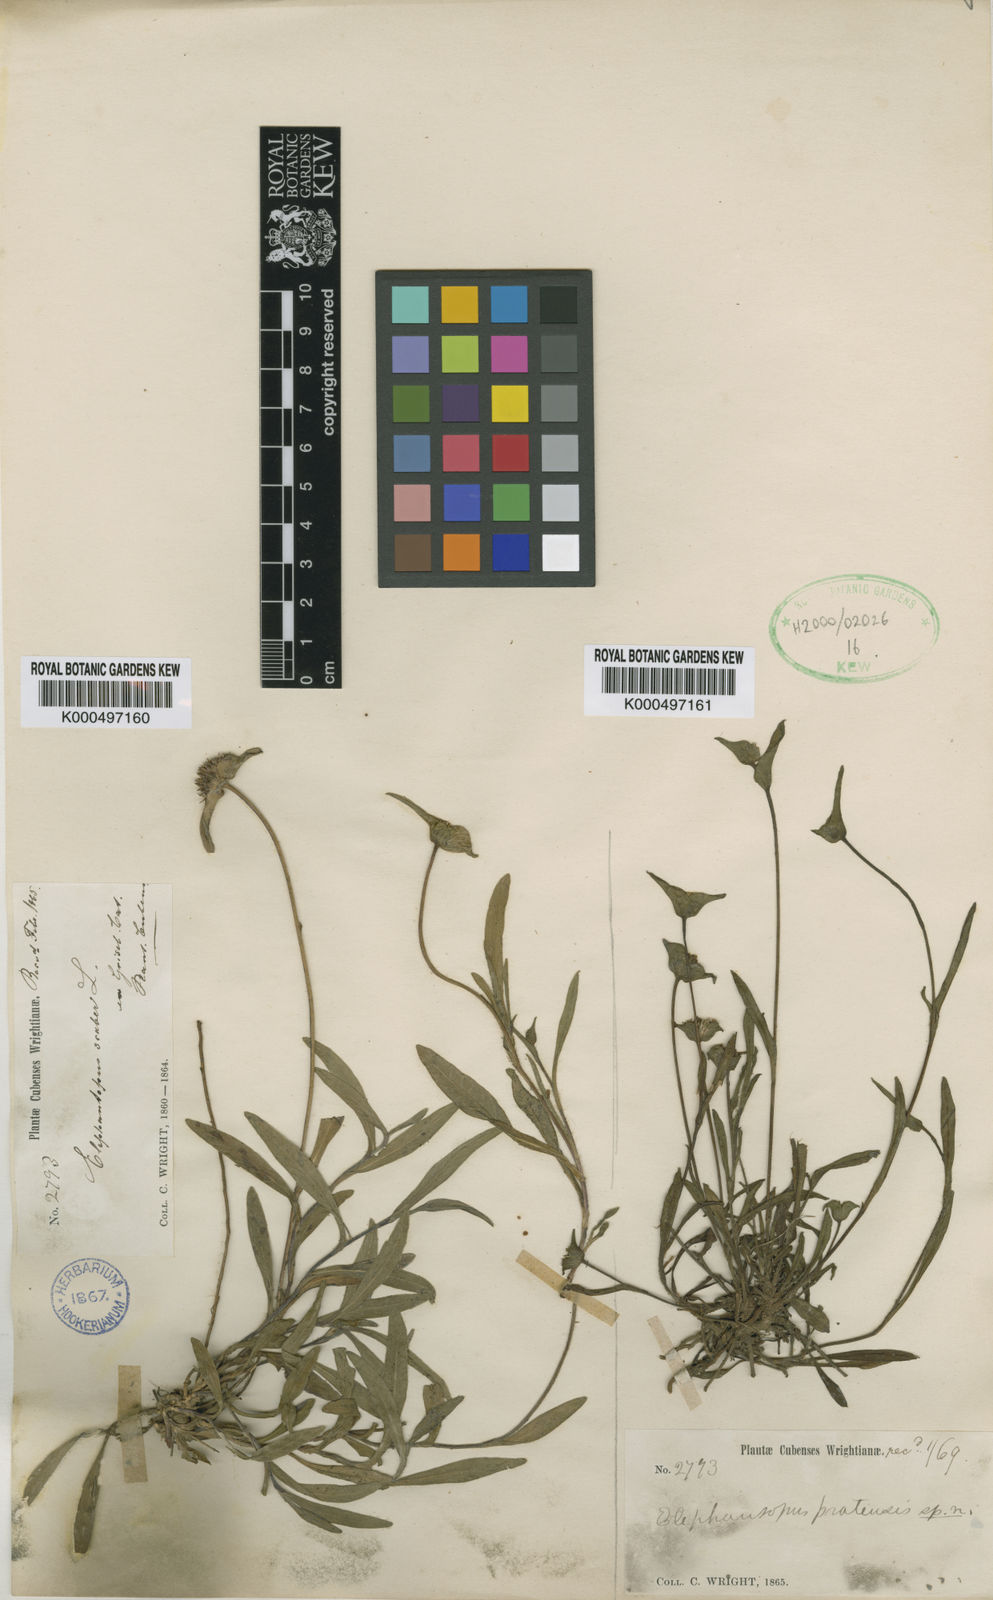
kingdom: Plantae
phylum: Tracheophyta
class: Magnoliopsida
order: Asterales
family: Asteraceae
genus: Elephantopus
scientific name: Elephantopus pratensis
